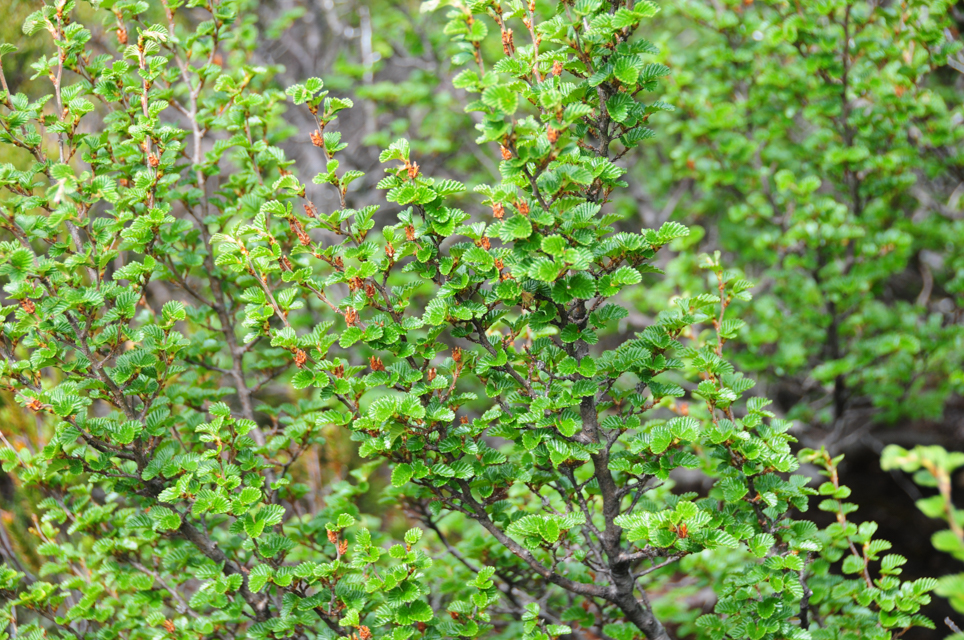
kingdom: Plantae
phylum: Tracheophyta
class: Magnoliopsida
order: Fagales
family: Nothofagaceae
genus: Nothofagus
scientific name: Nothofagus gunnii
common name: Tanglefoot
